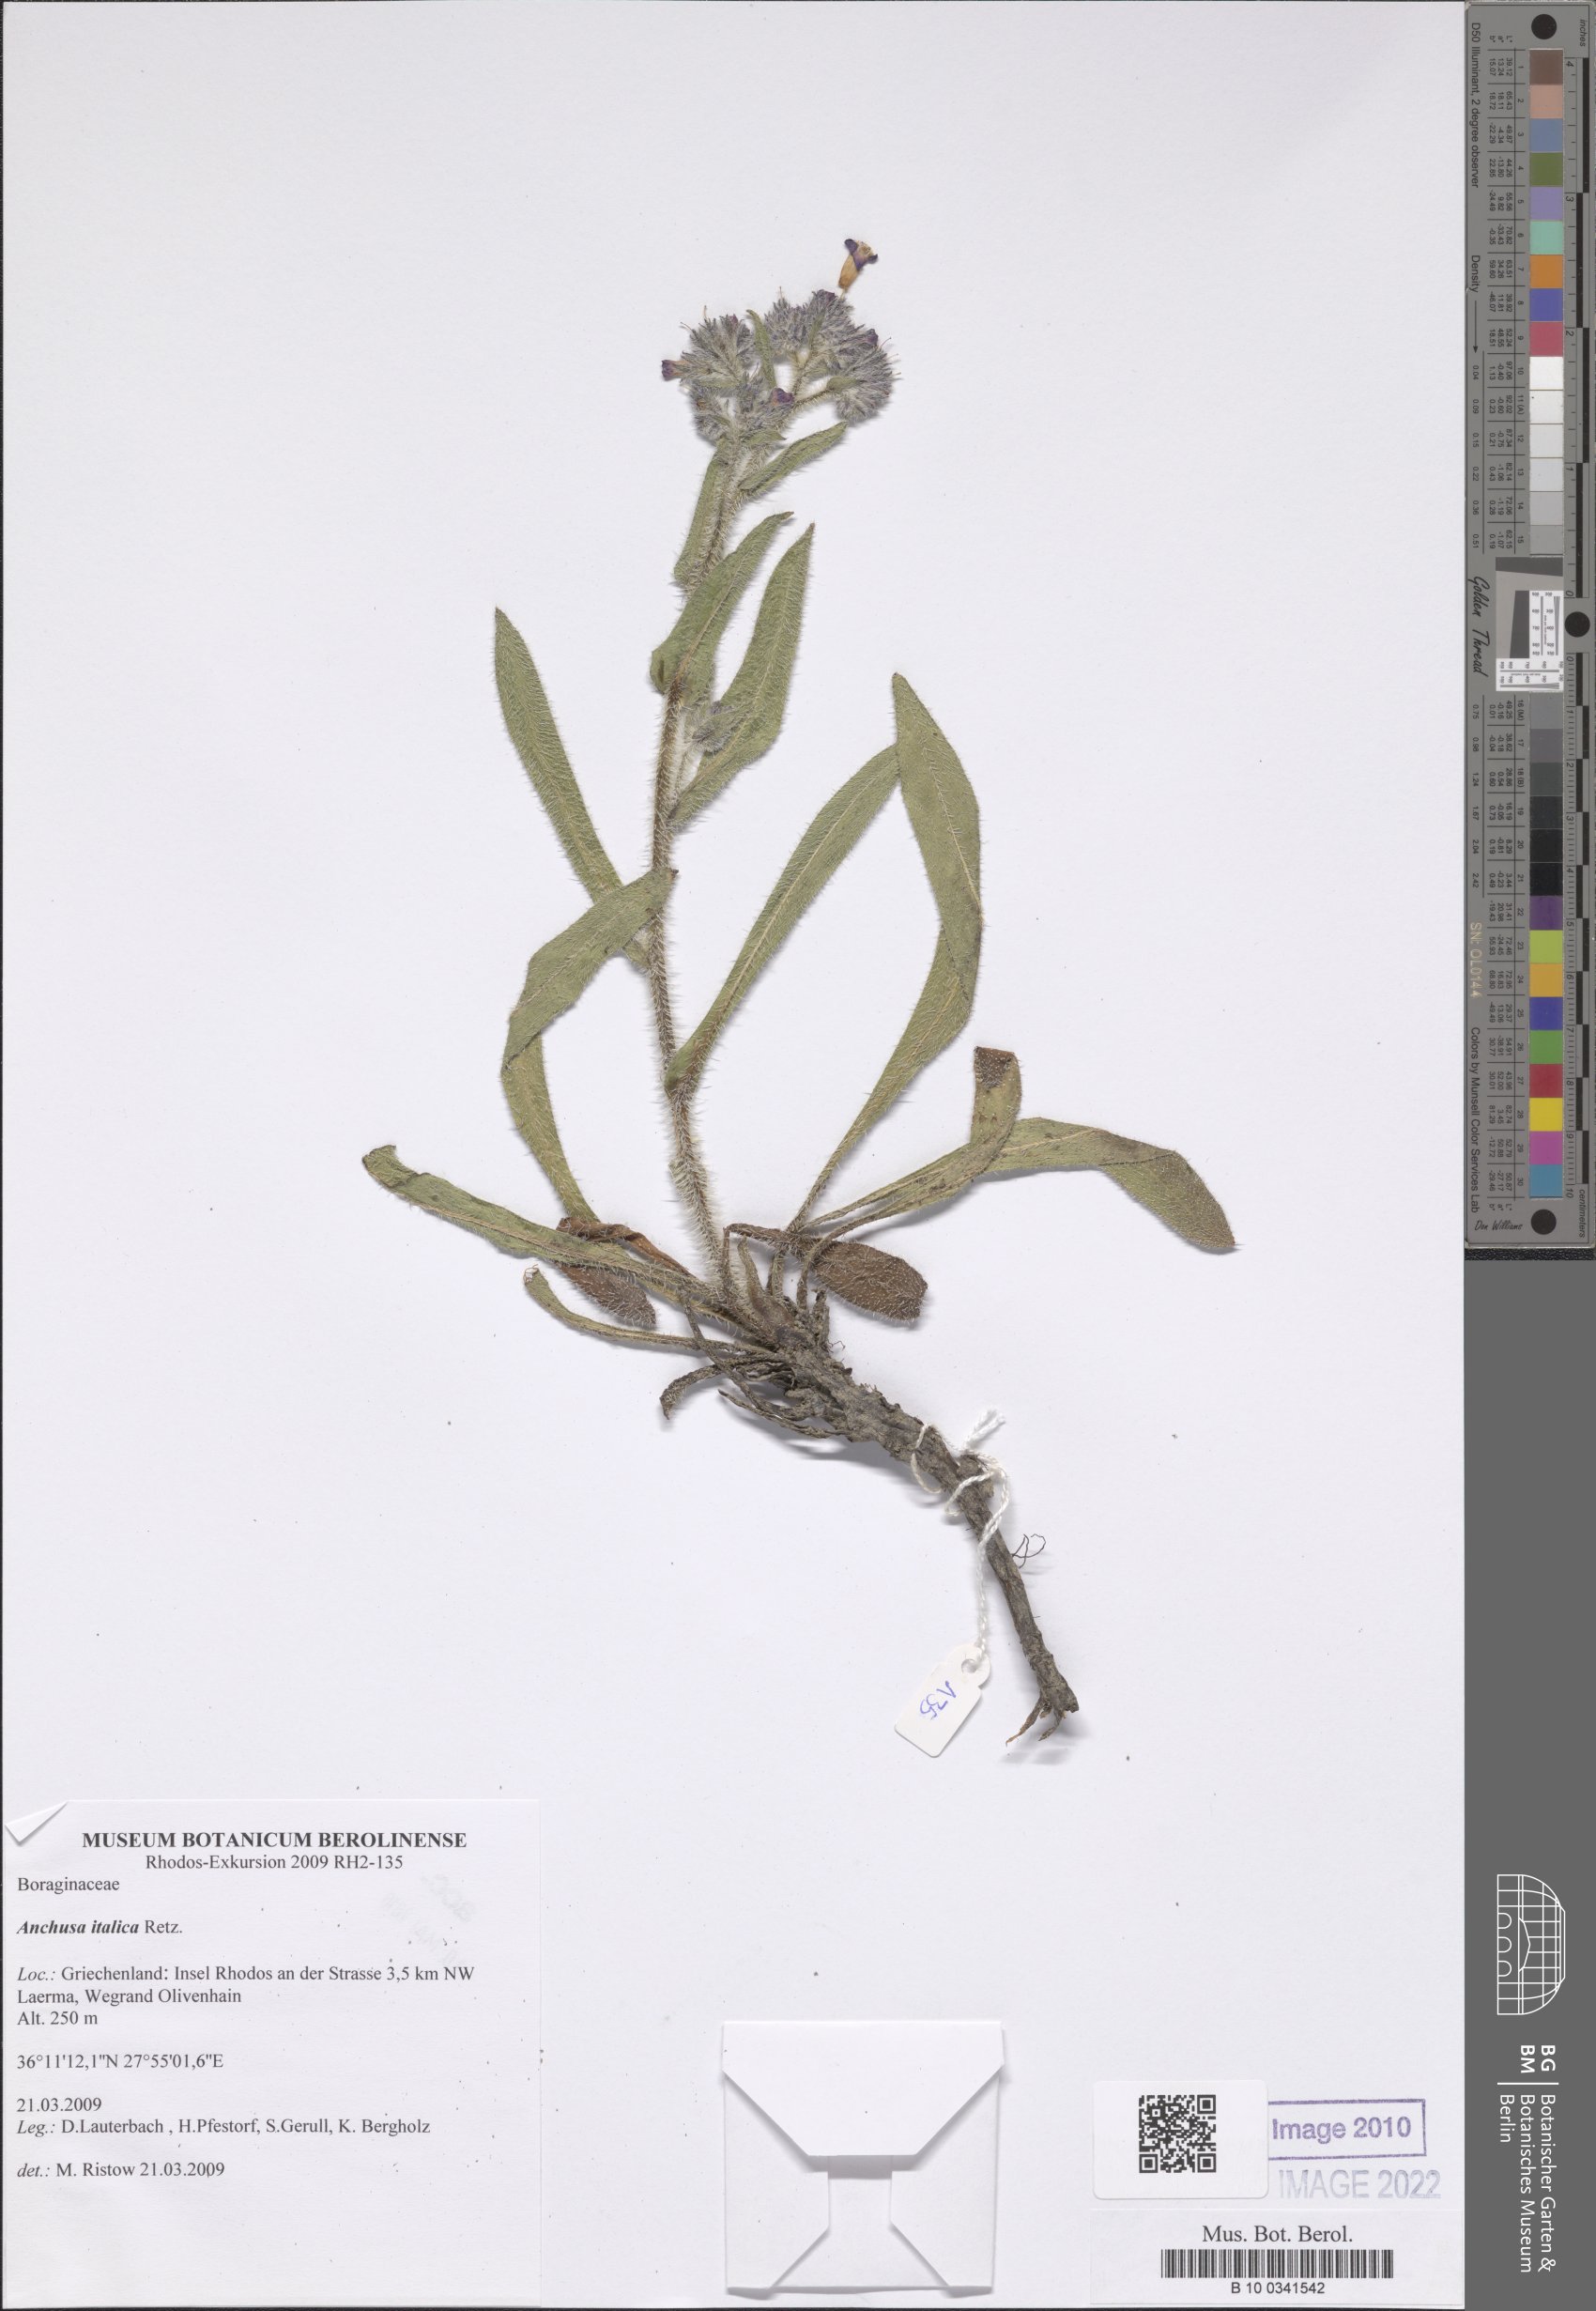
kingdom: Plantae
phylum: Tracheophyta
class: Magnoliopsida
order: Boraginales
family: Boraginaceae
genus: Anchusa
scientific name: Anchusa azurea
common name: Garden anchusa
